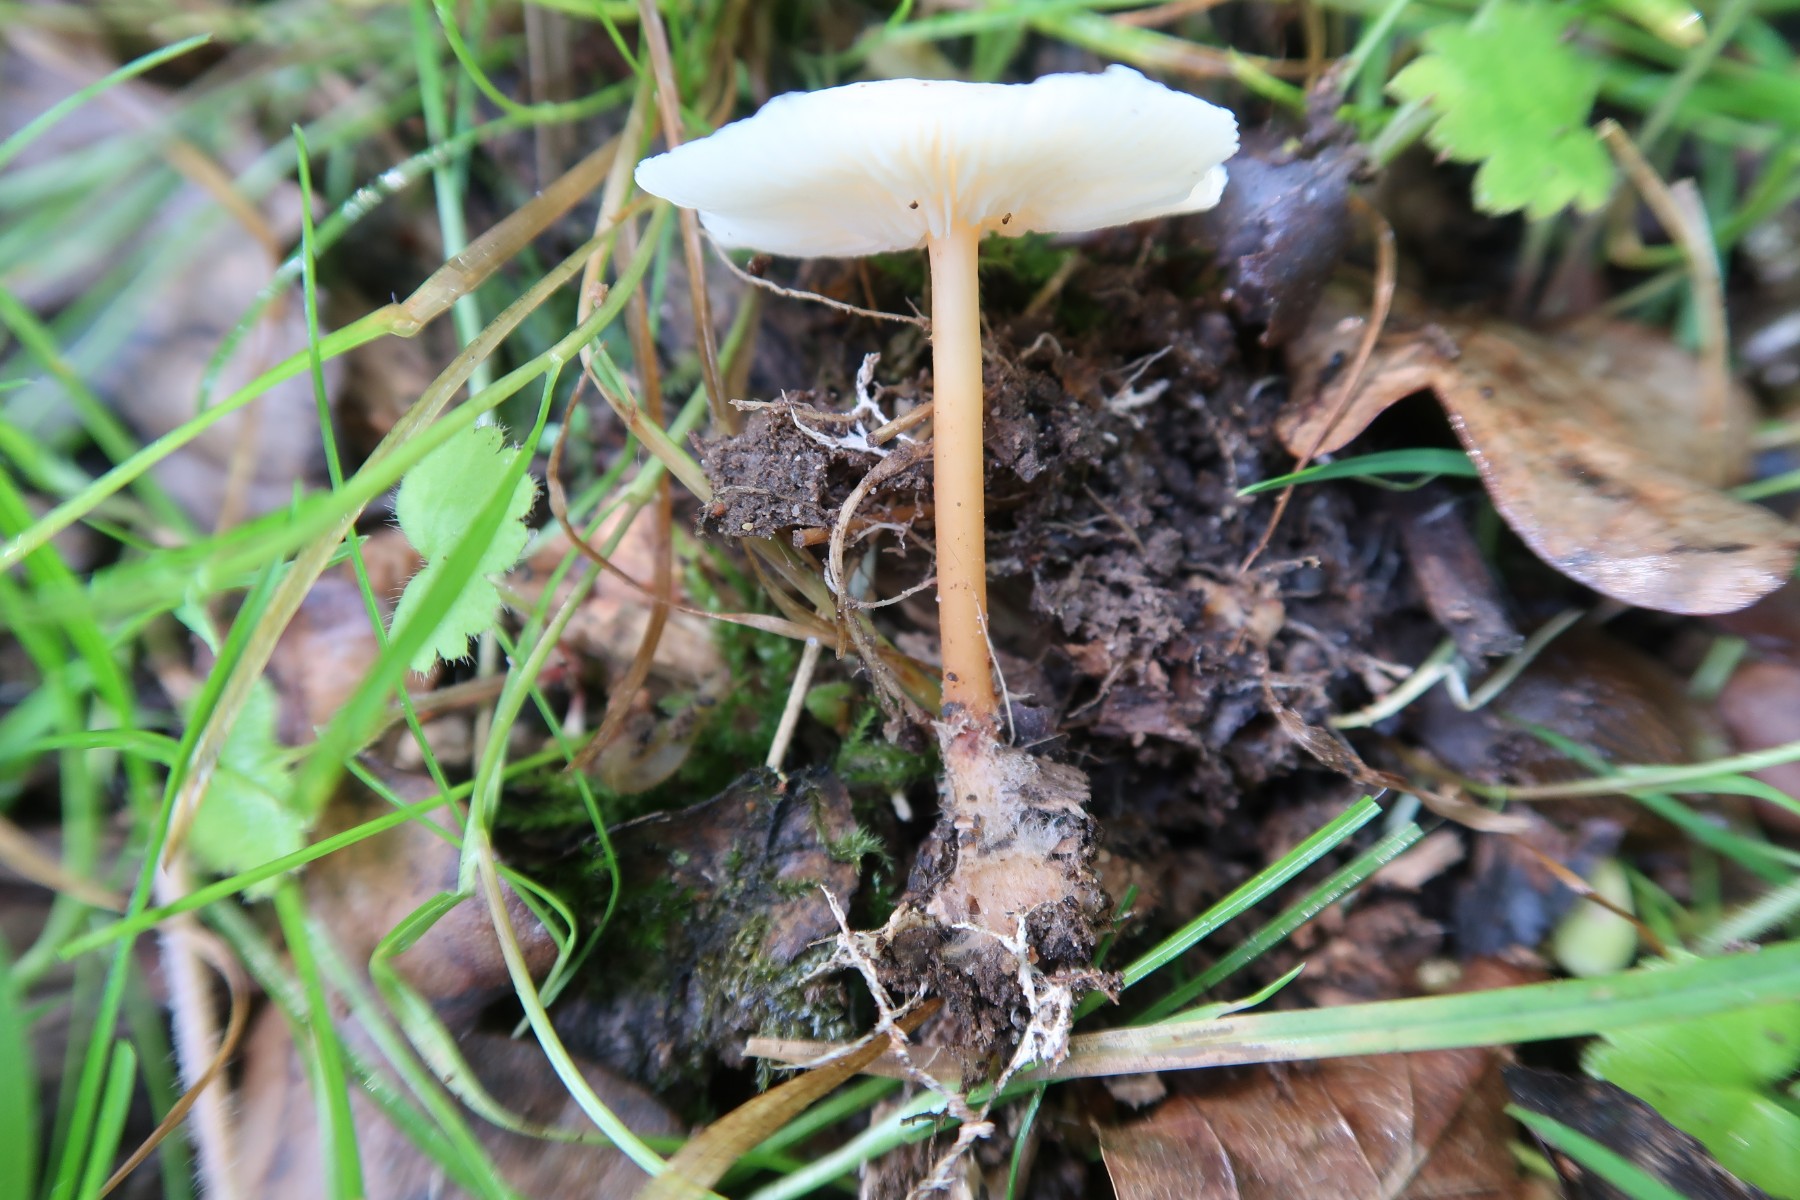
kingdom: Fungi
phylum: Basidiomycota
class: Agaricomycetes
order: Agaricales
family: Omphalotaceae
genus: Gymnopus
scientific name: Gymnopus aquosus
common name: bleg fladhat
